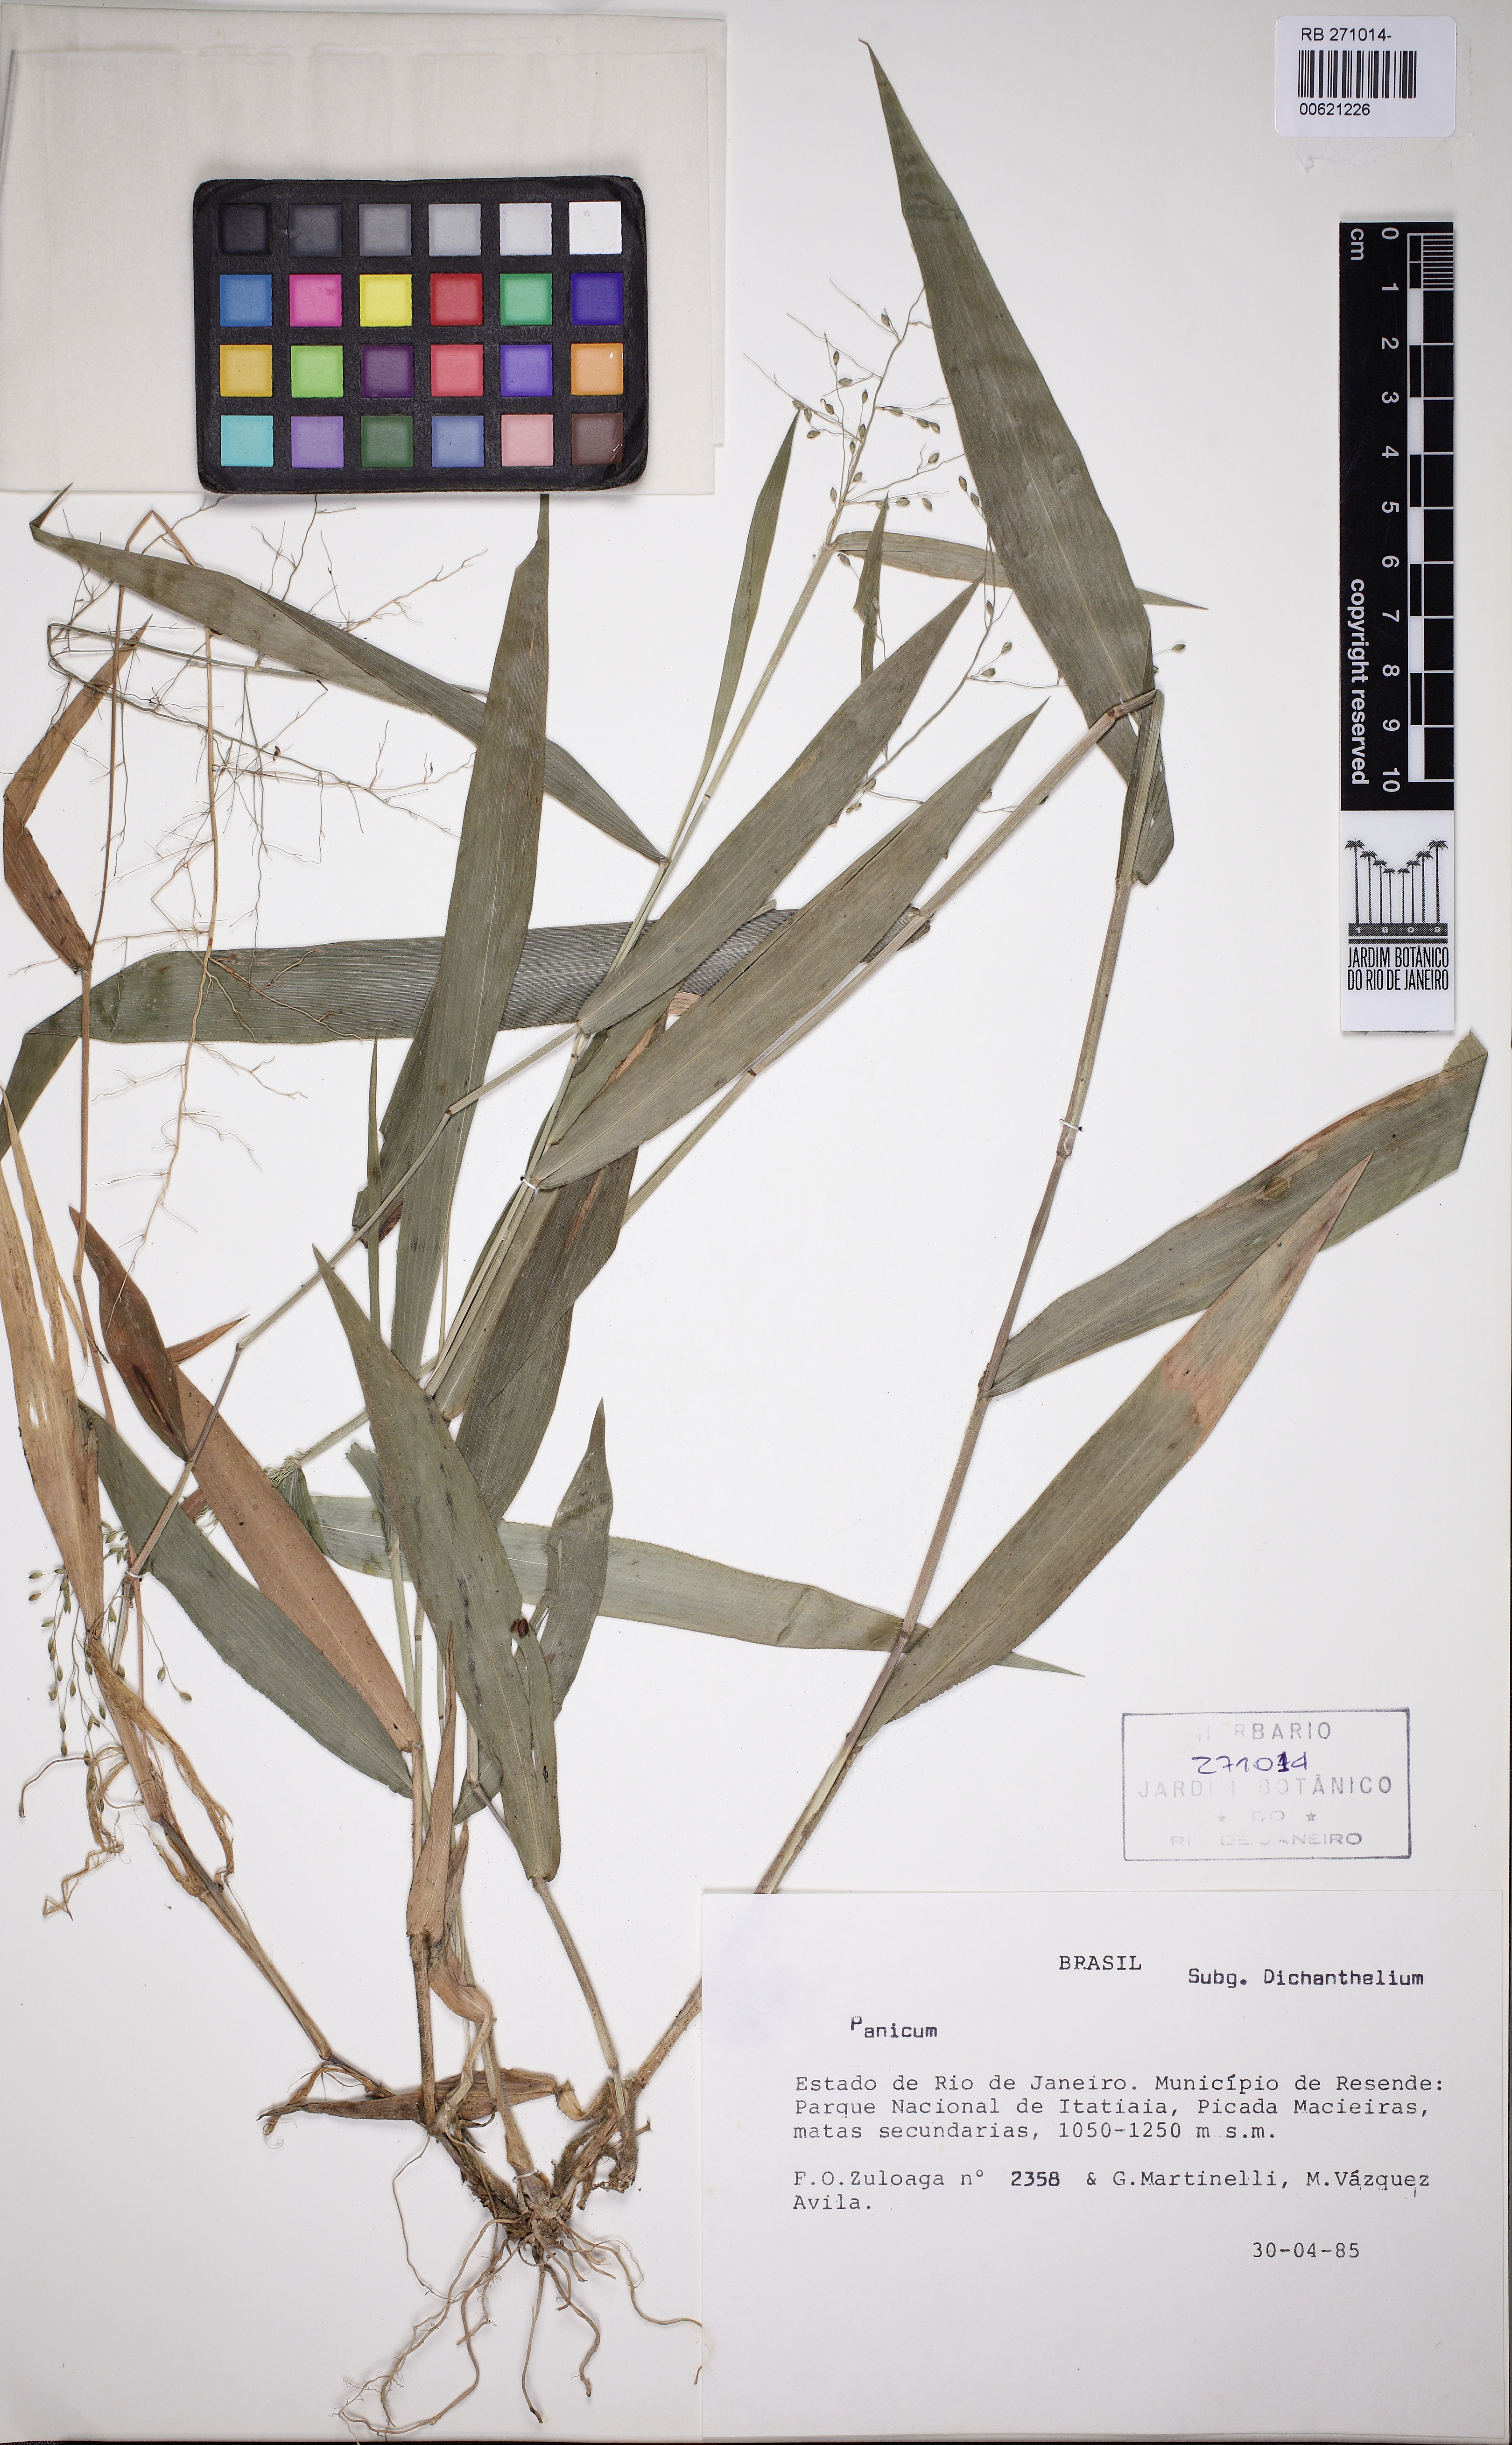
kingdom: Plantae
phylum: Tracheophyta
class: Liliopsida
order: Poales
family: Poaceae
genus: Dichanthelium
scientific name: Dichanthelium stigmosum
